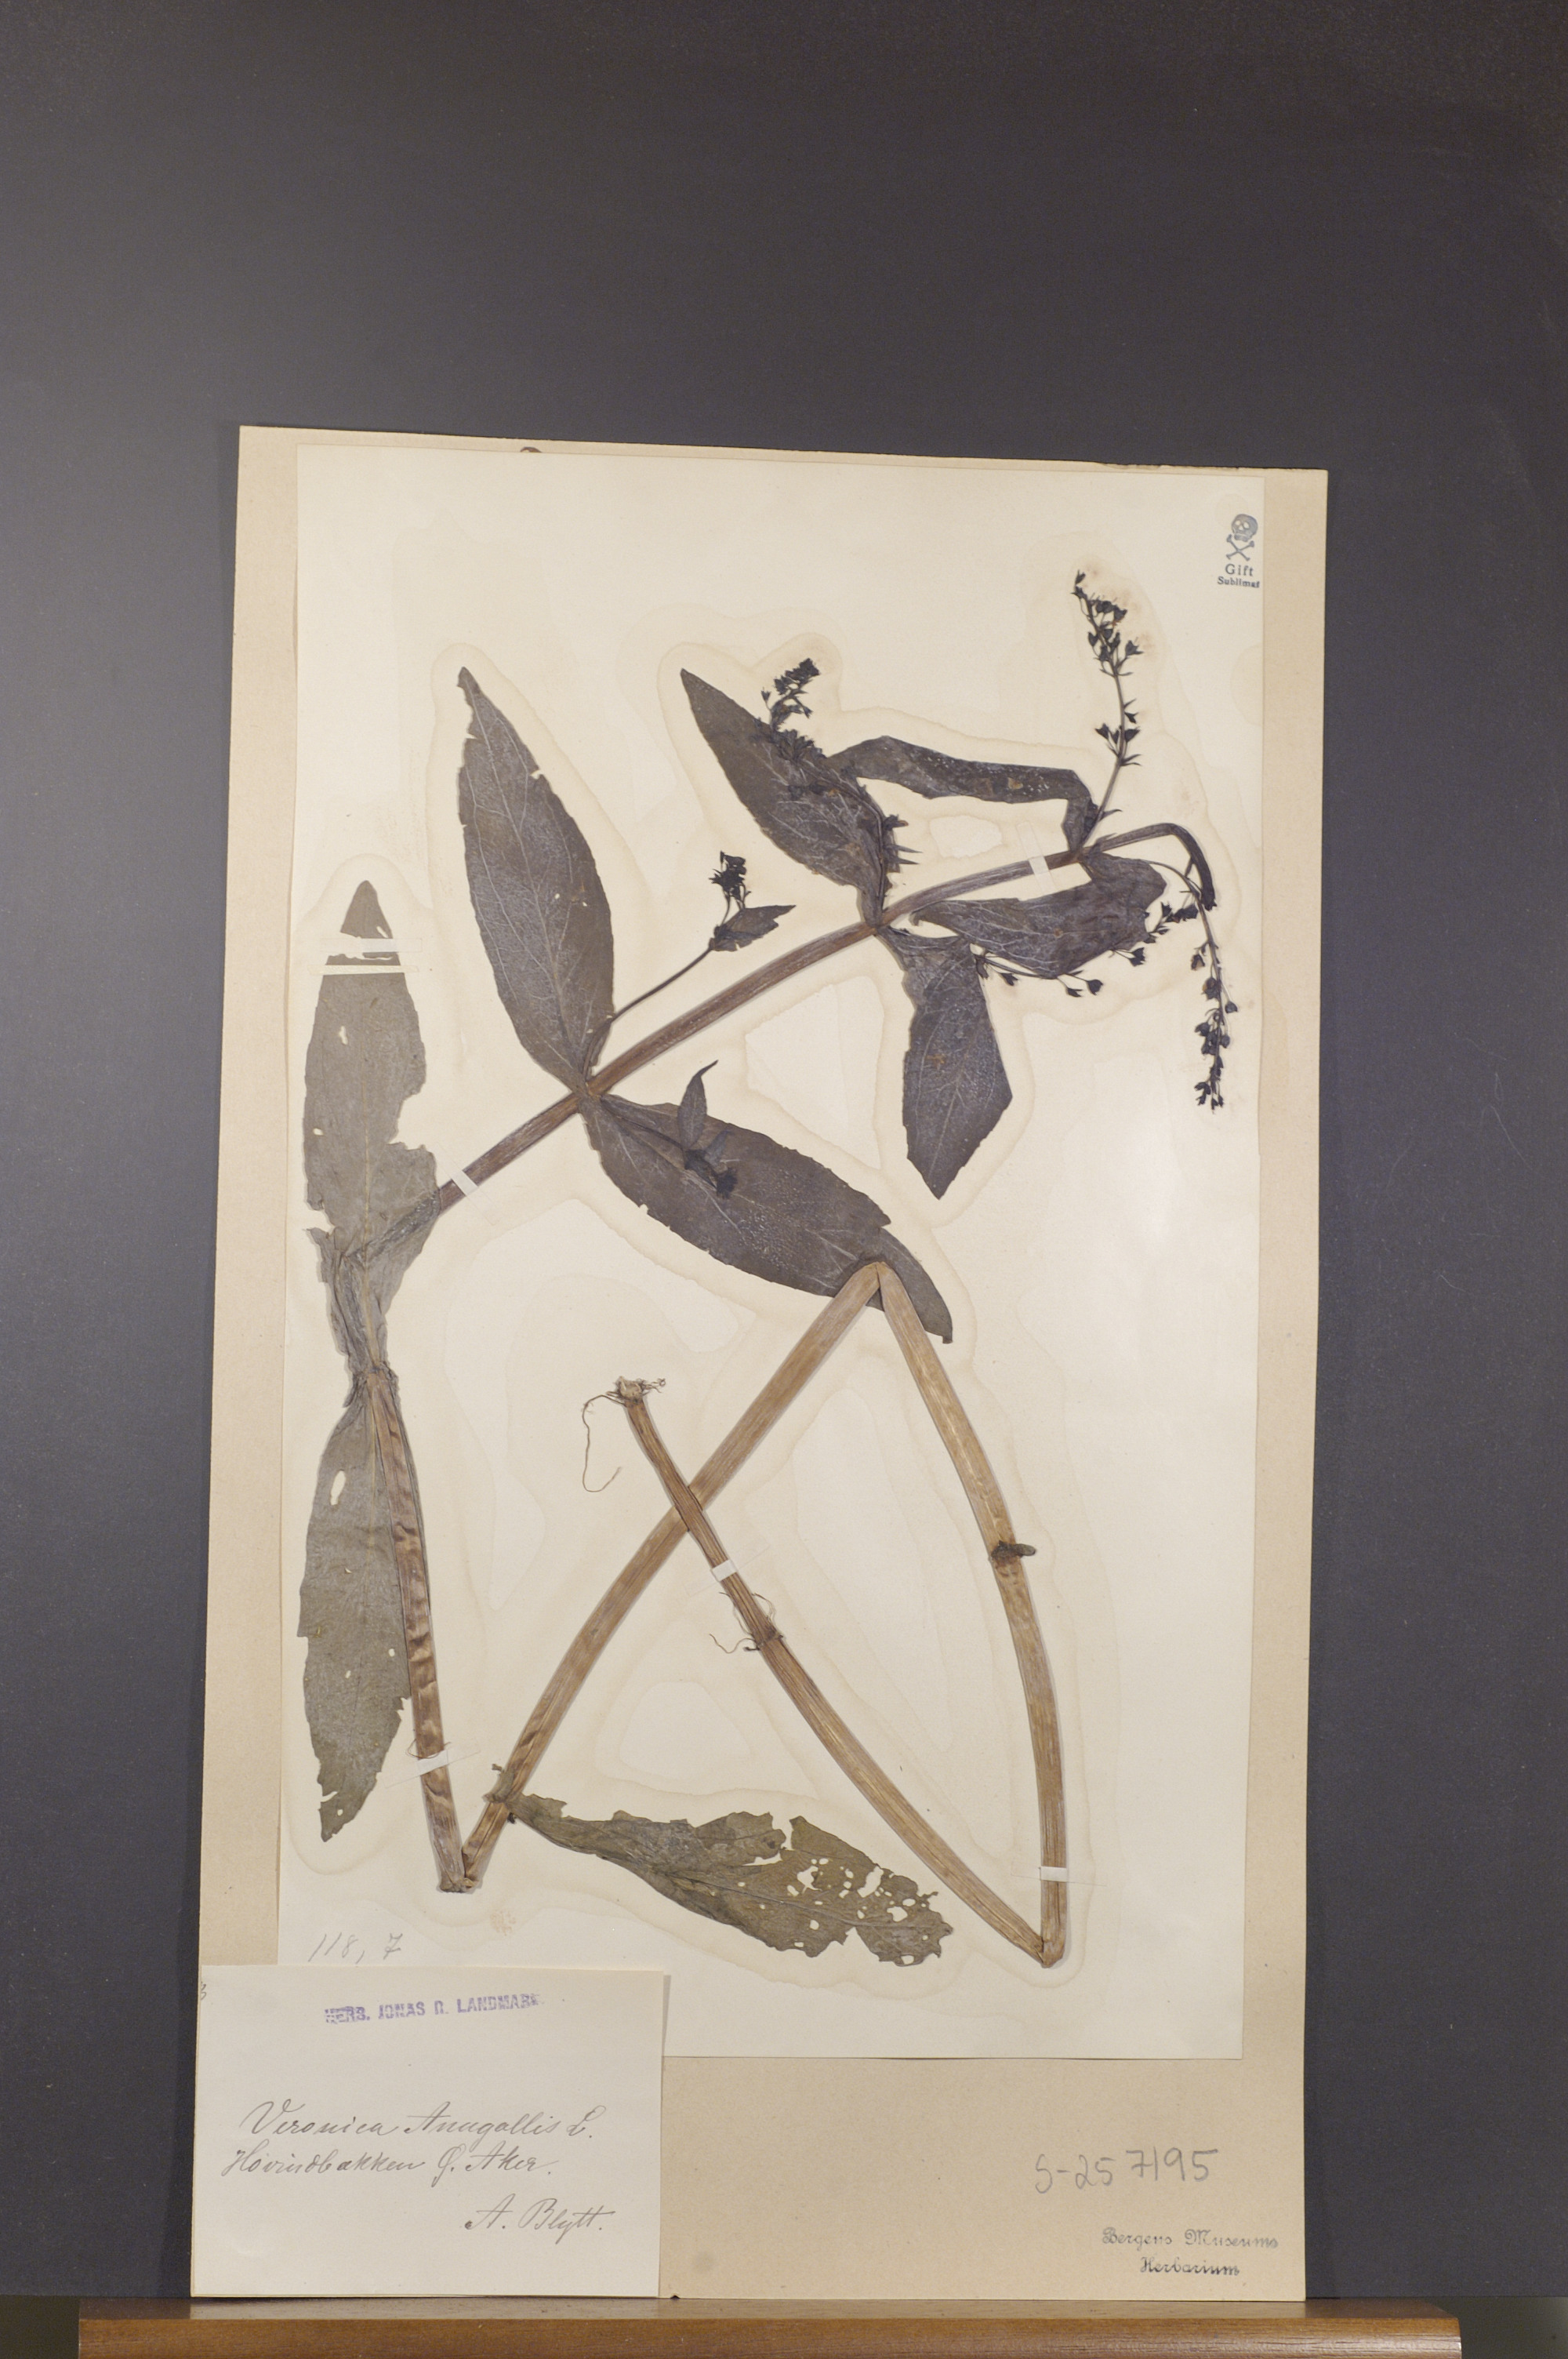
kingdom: Plantae
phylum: Tracheophyta
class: Magnoliopsida
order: Lamiales
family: Plantaginaceae
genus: Veronica
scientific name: Veronica anagallis-aquatica
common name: Water speedwell
